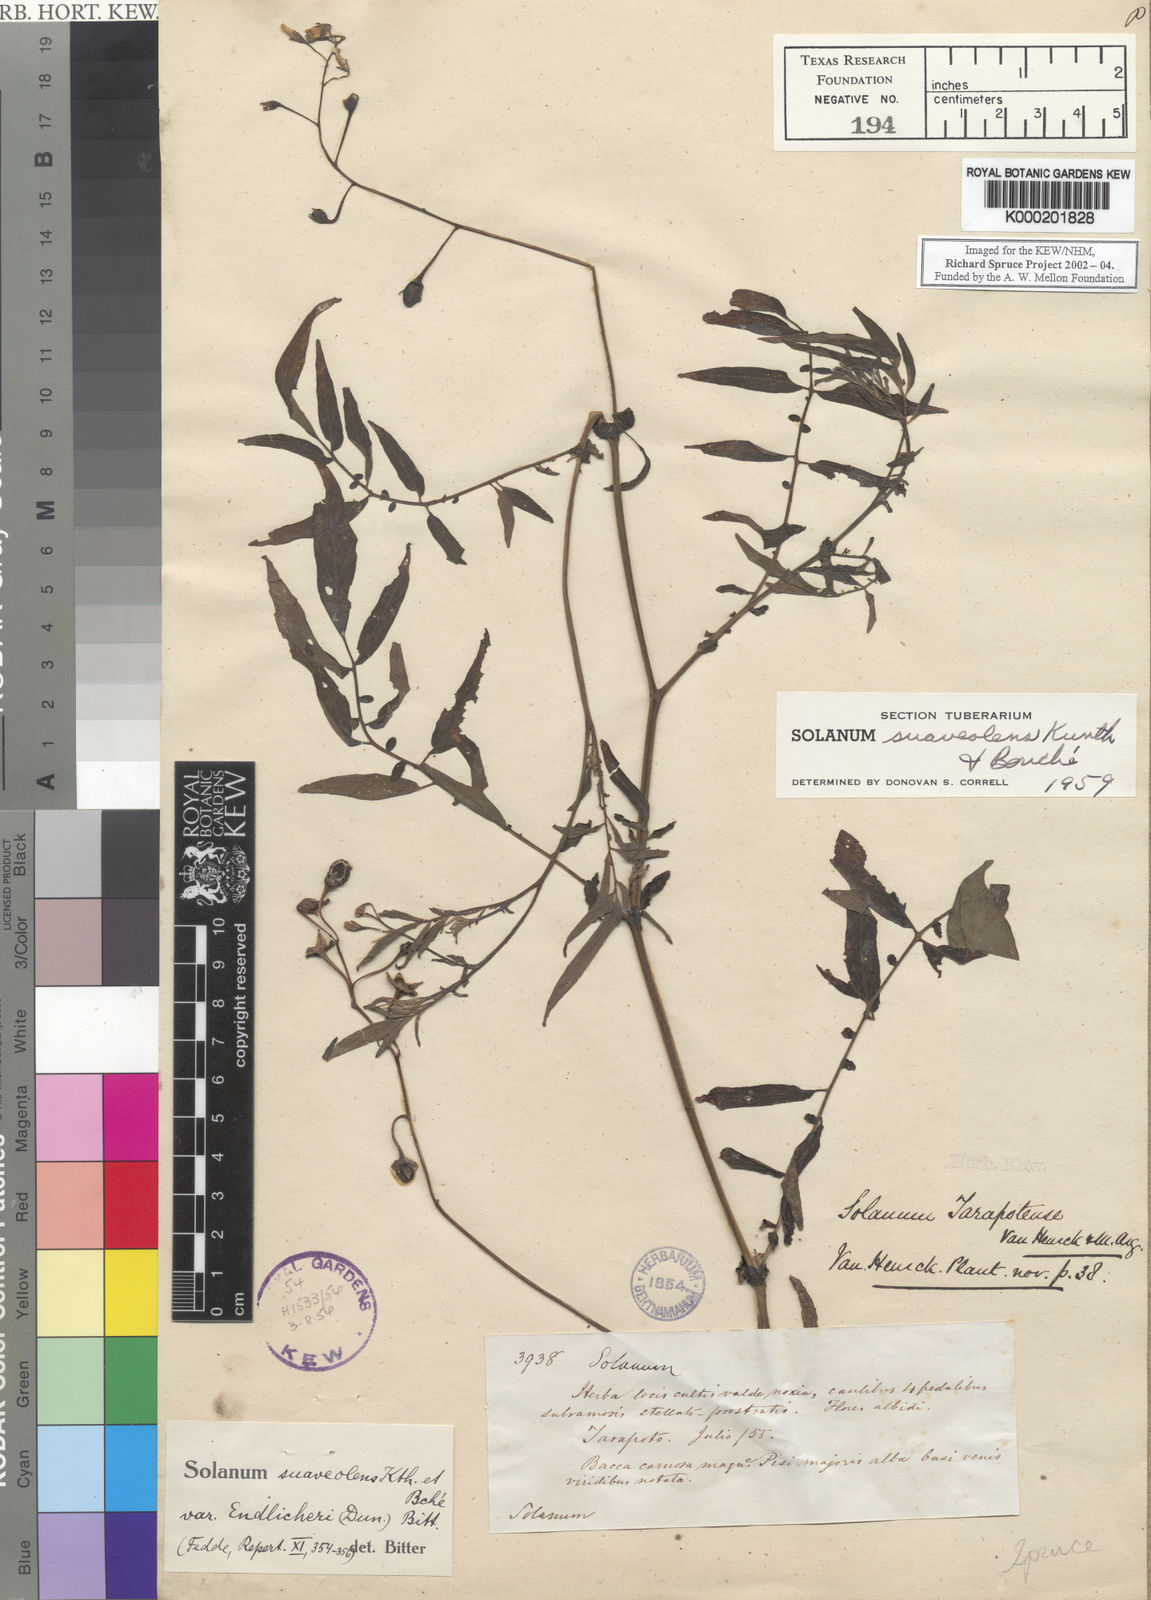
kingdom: Plantae
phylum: Tracheophyta
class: Magnoliopsida
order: Solanales
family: Solanaceae
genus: Solanum
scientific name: Solanum
